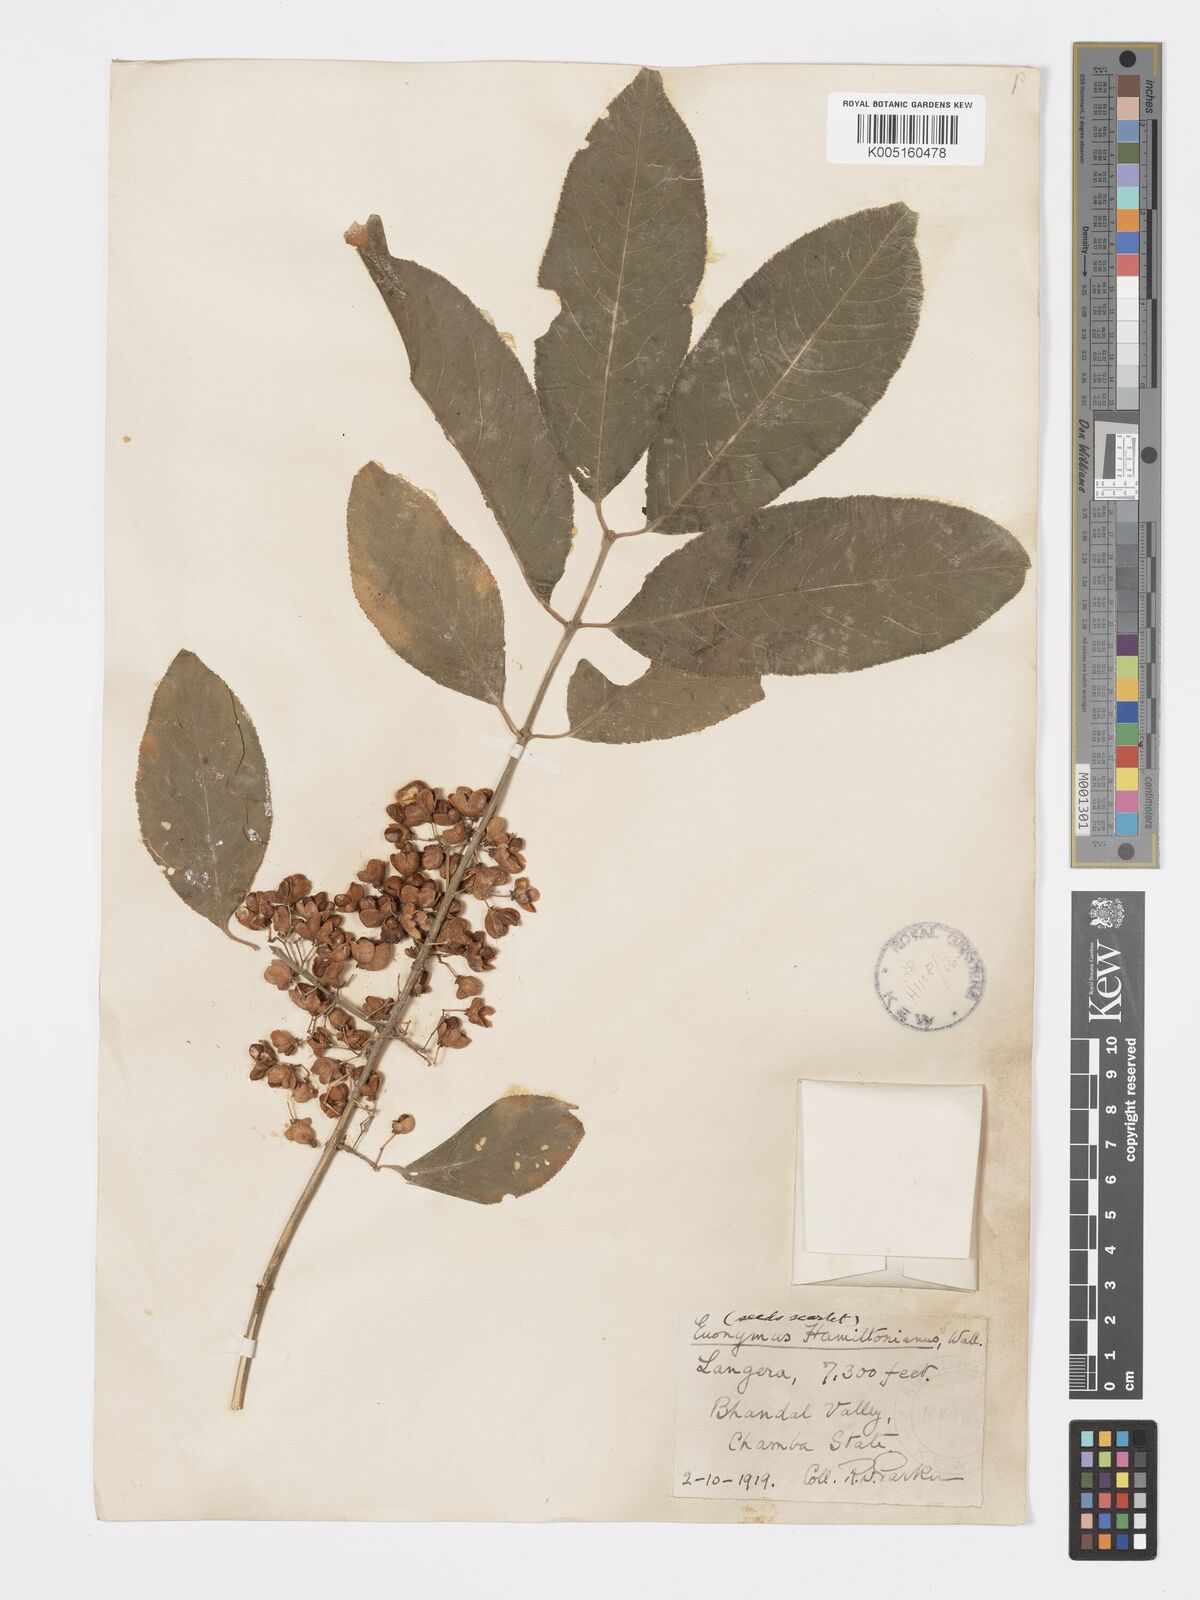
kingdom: Plantae
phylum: Tracheophyta
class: Magnoliopsida
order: Celastrales
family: Celastraceae
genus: Euonymus
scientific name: Euonymus
